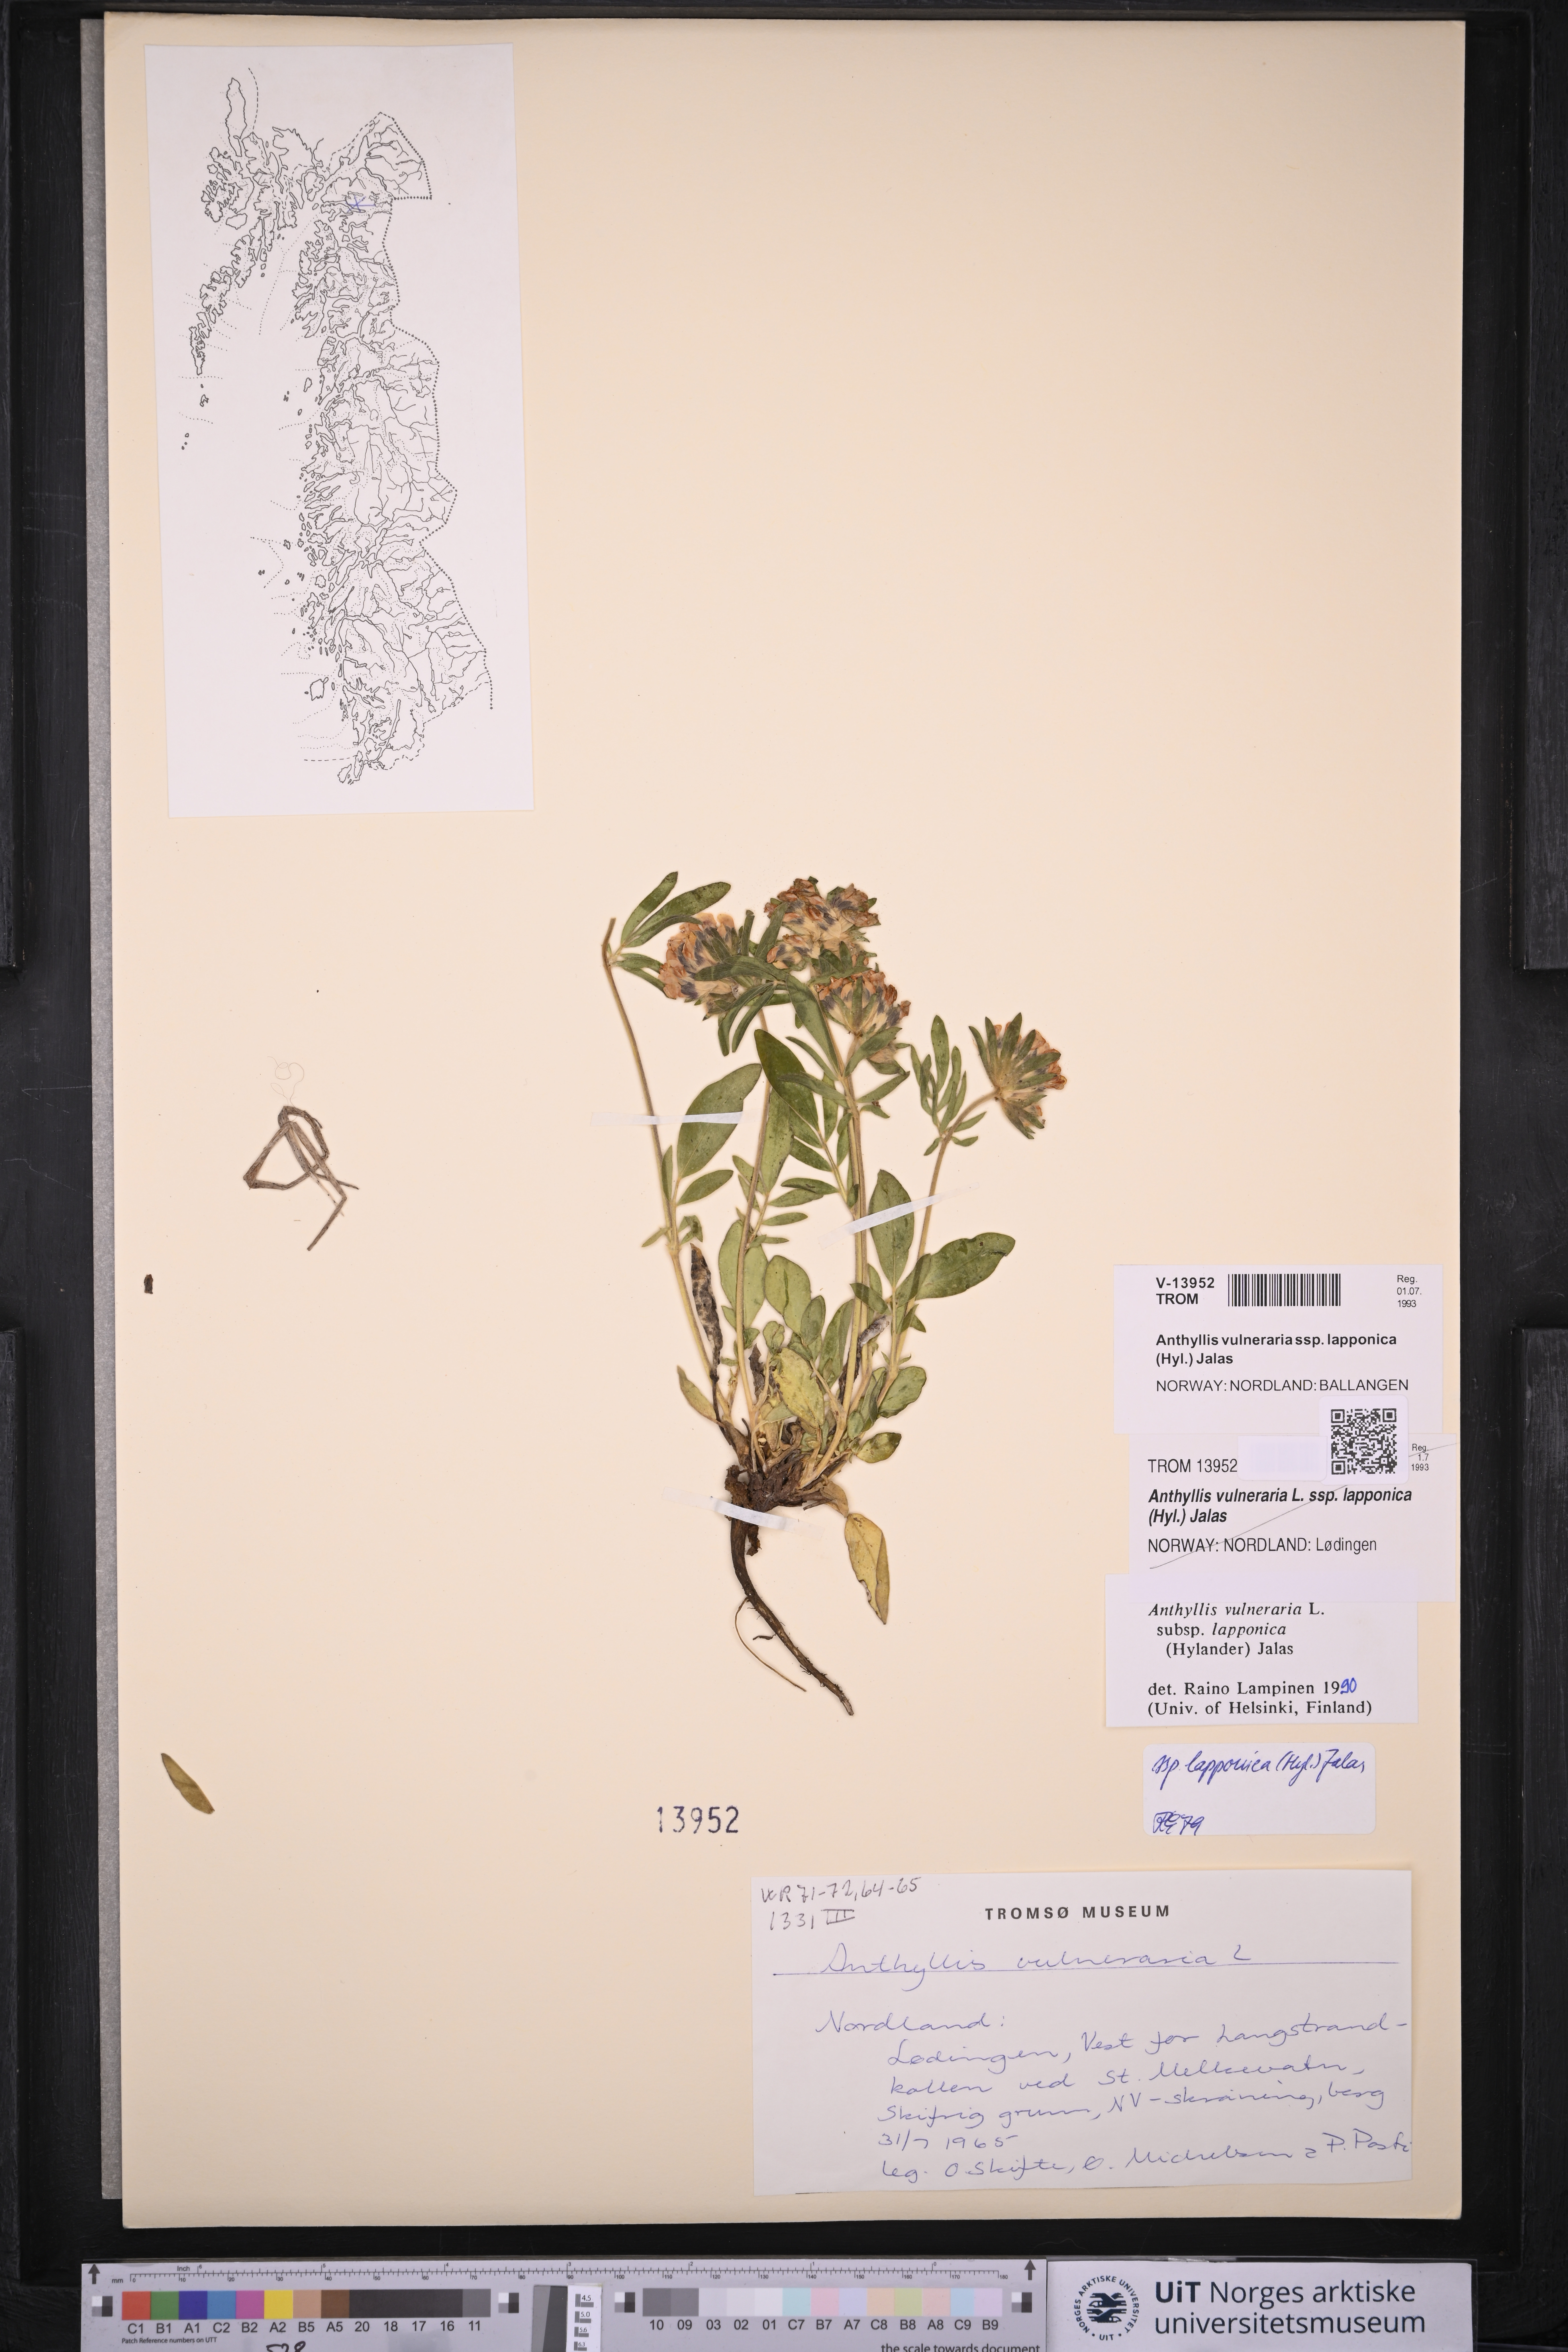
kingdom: Plantae
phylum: Tracheophyta
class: Magnoliopsida
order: Fabales
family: Fabaceae
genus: Anthyllis
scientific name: Anthyllis vulneraria
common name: Kidney vetch
